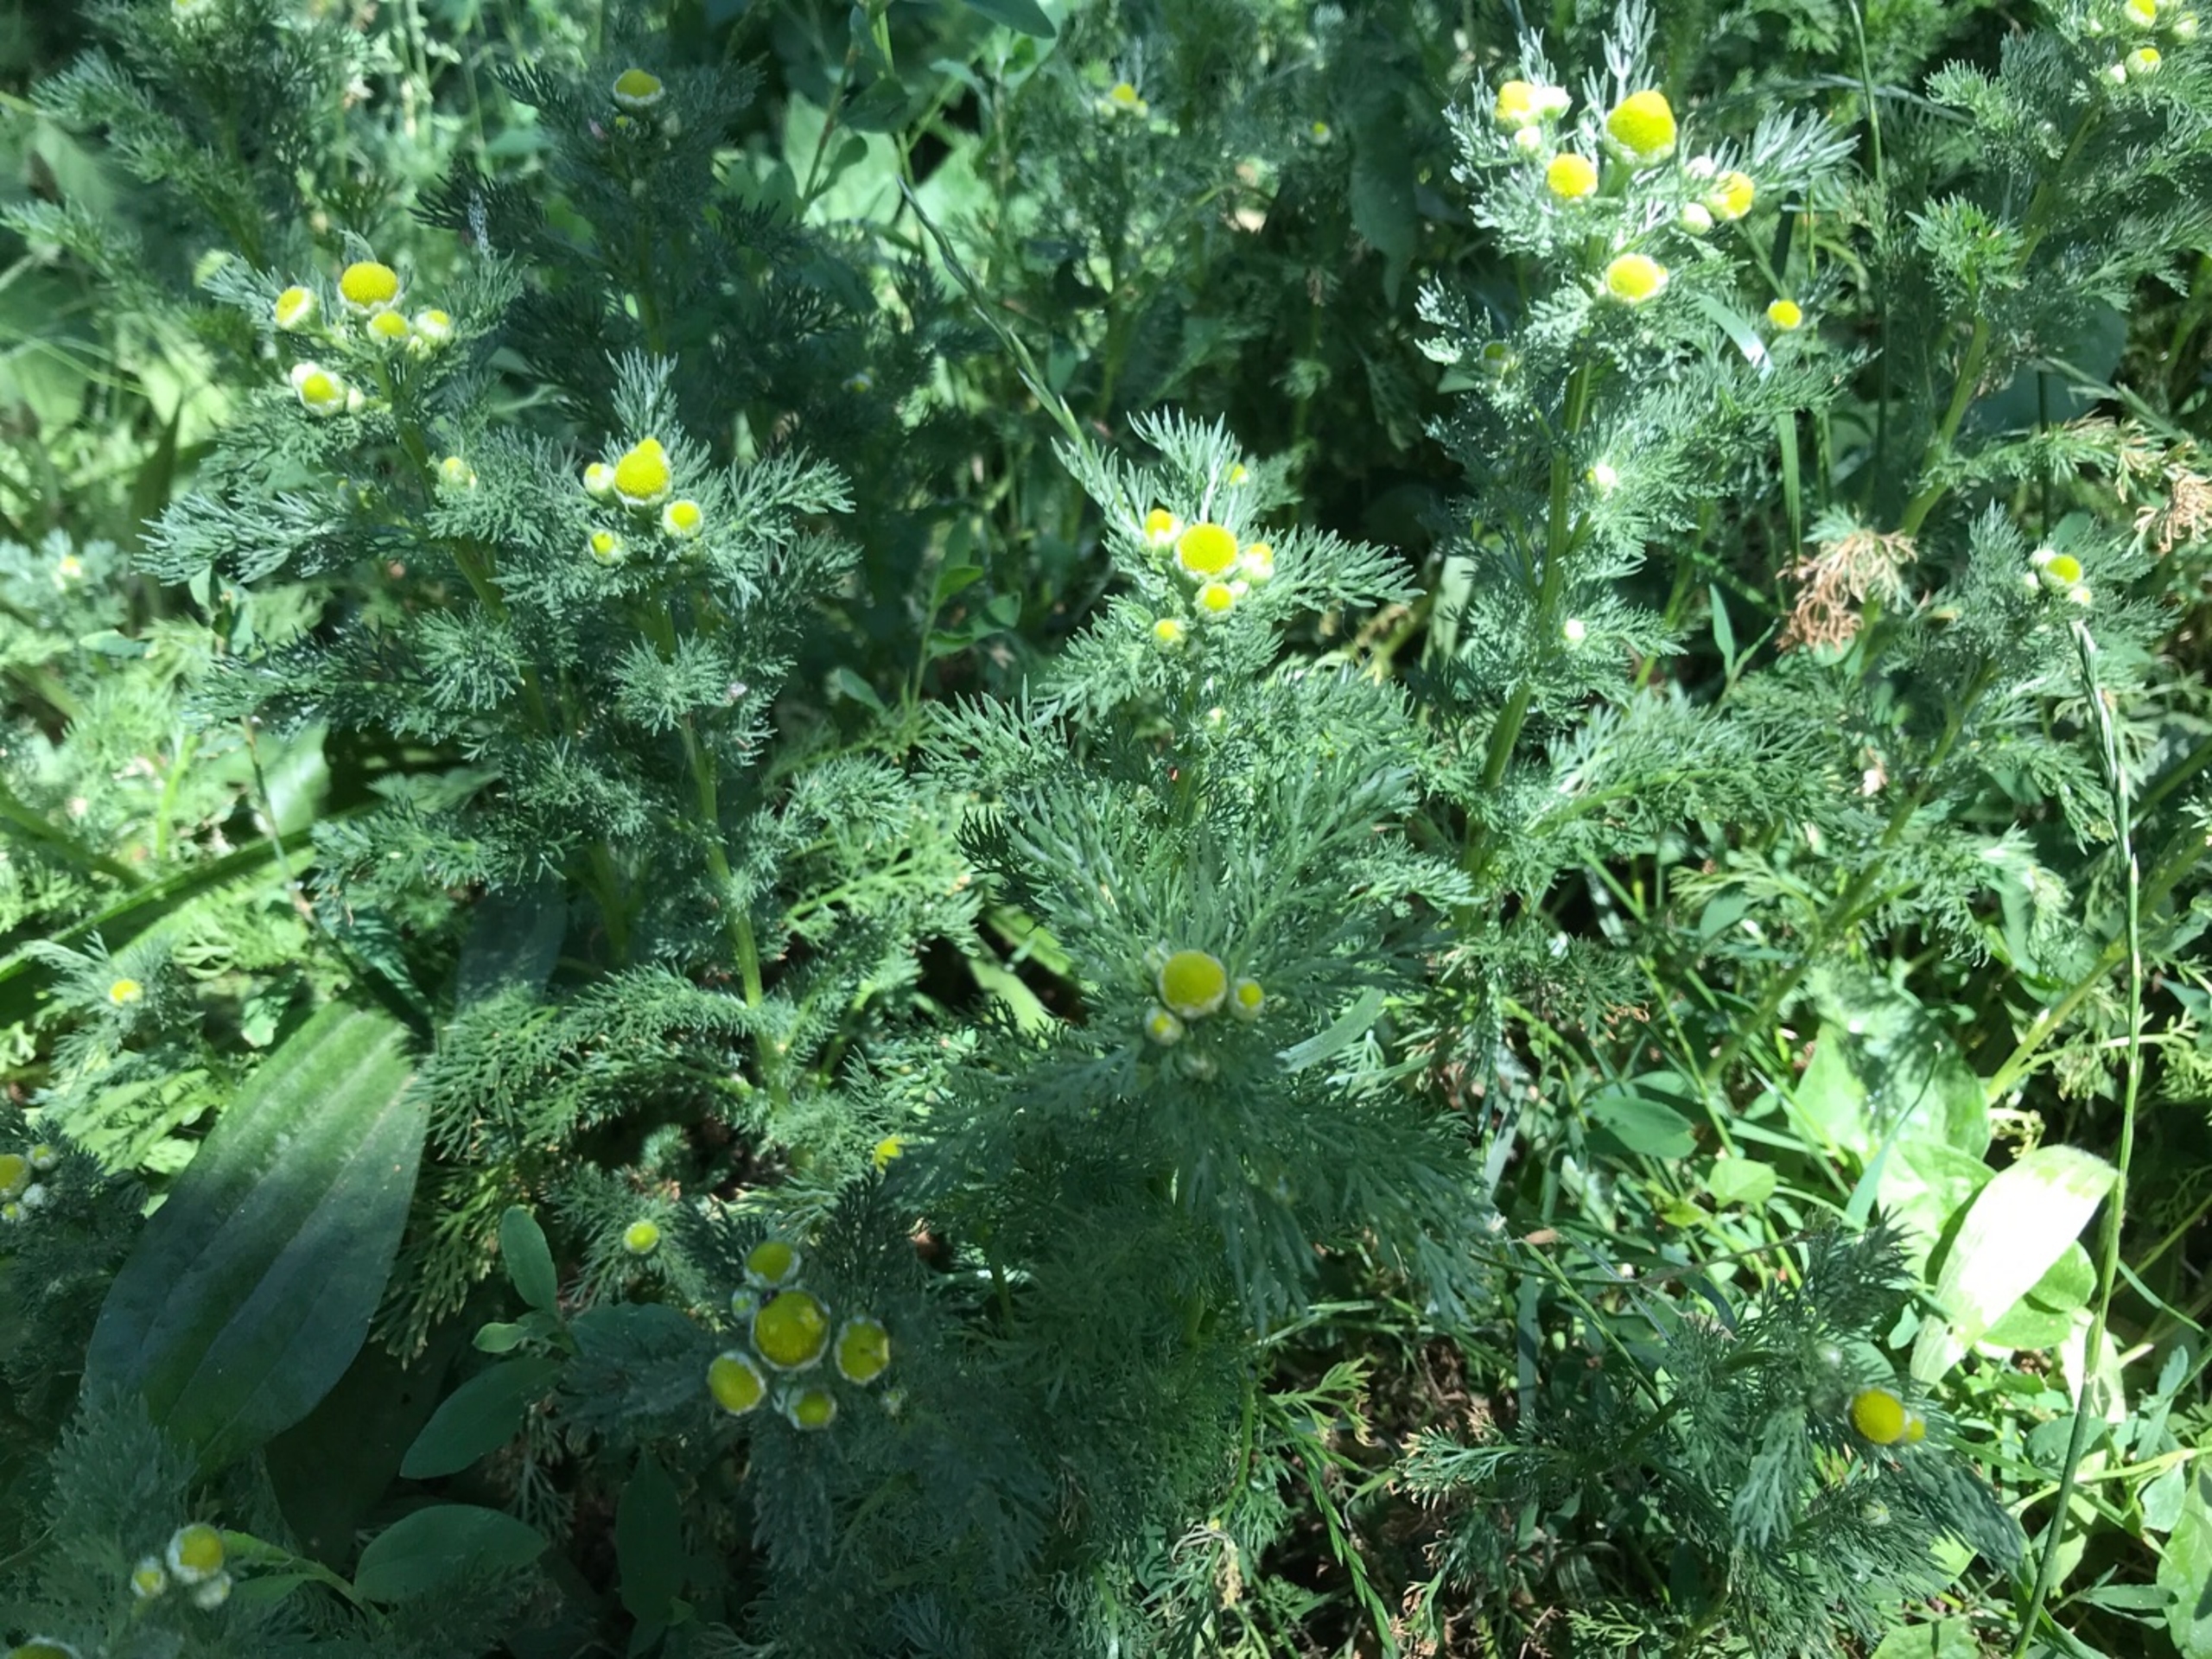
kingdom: Plantae
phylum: Tracheophyta
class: Magnoliopsida
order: Asterales
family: Asteraceae
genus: Matricaria
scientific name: Matricaria discoidea
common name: Skive-kamille
